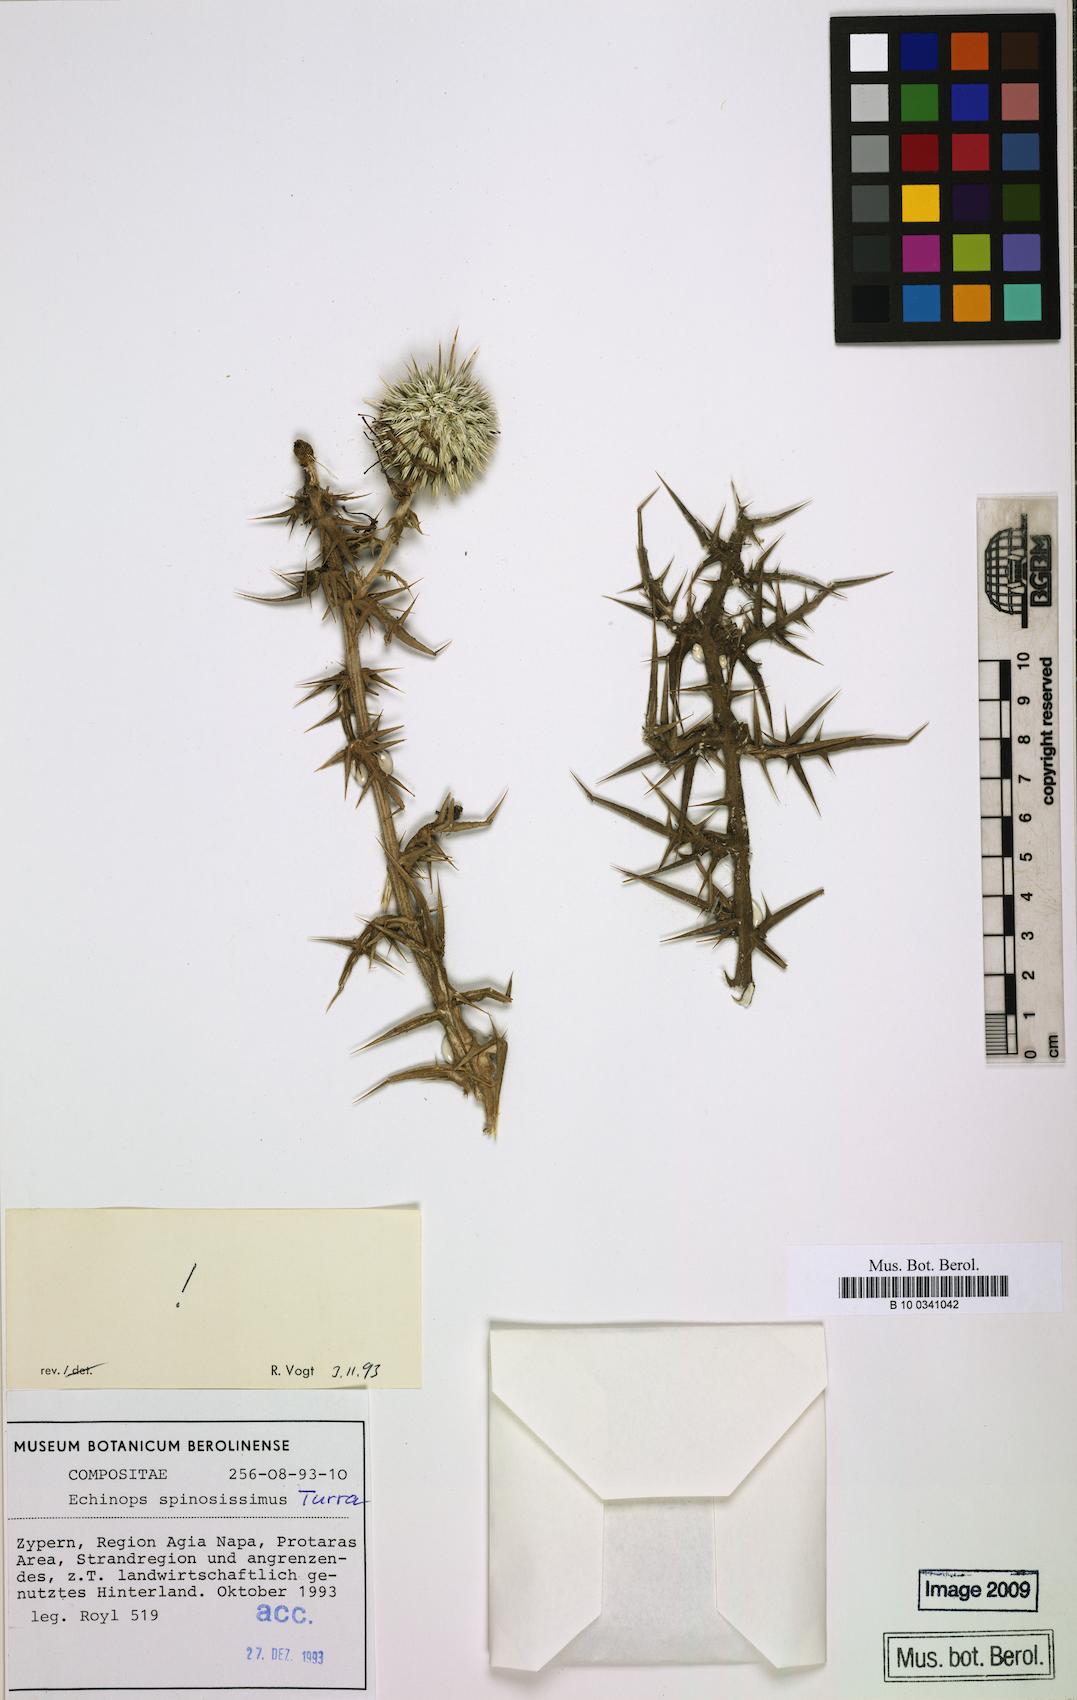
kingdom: Plantae
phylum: Tracheophyta
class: Magnoliopsida
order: Asterales
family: Asteraceae
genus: Echinops
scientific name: Echinops spinosissimus
